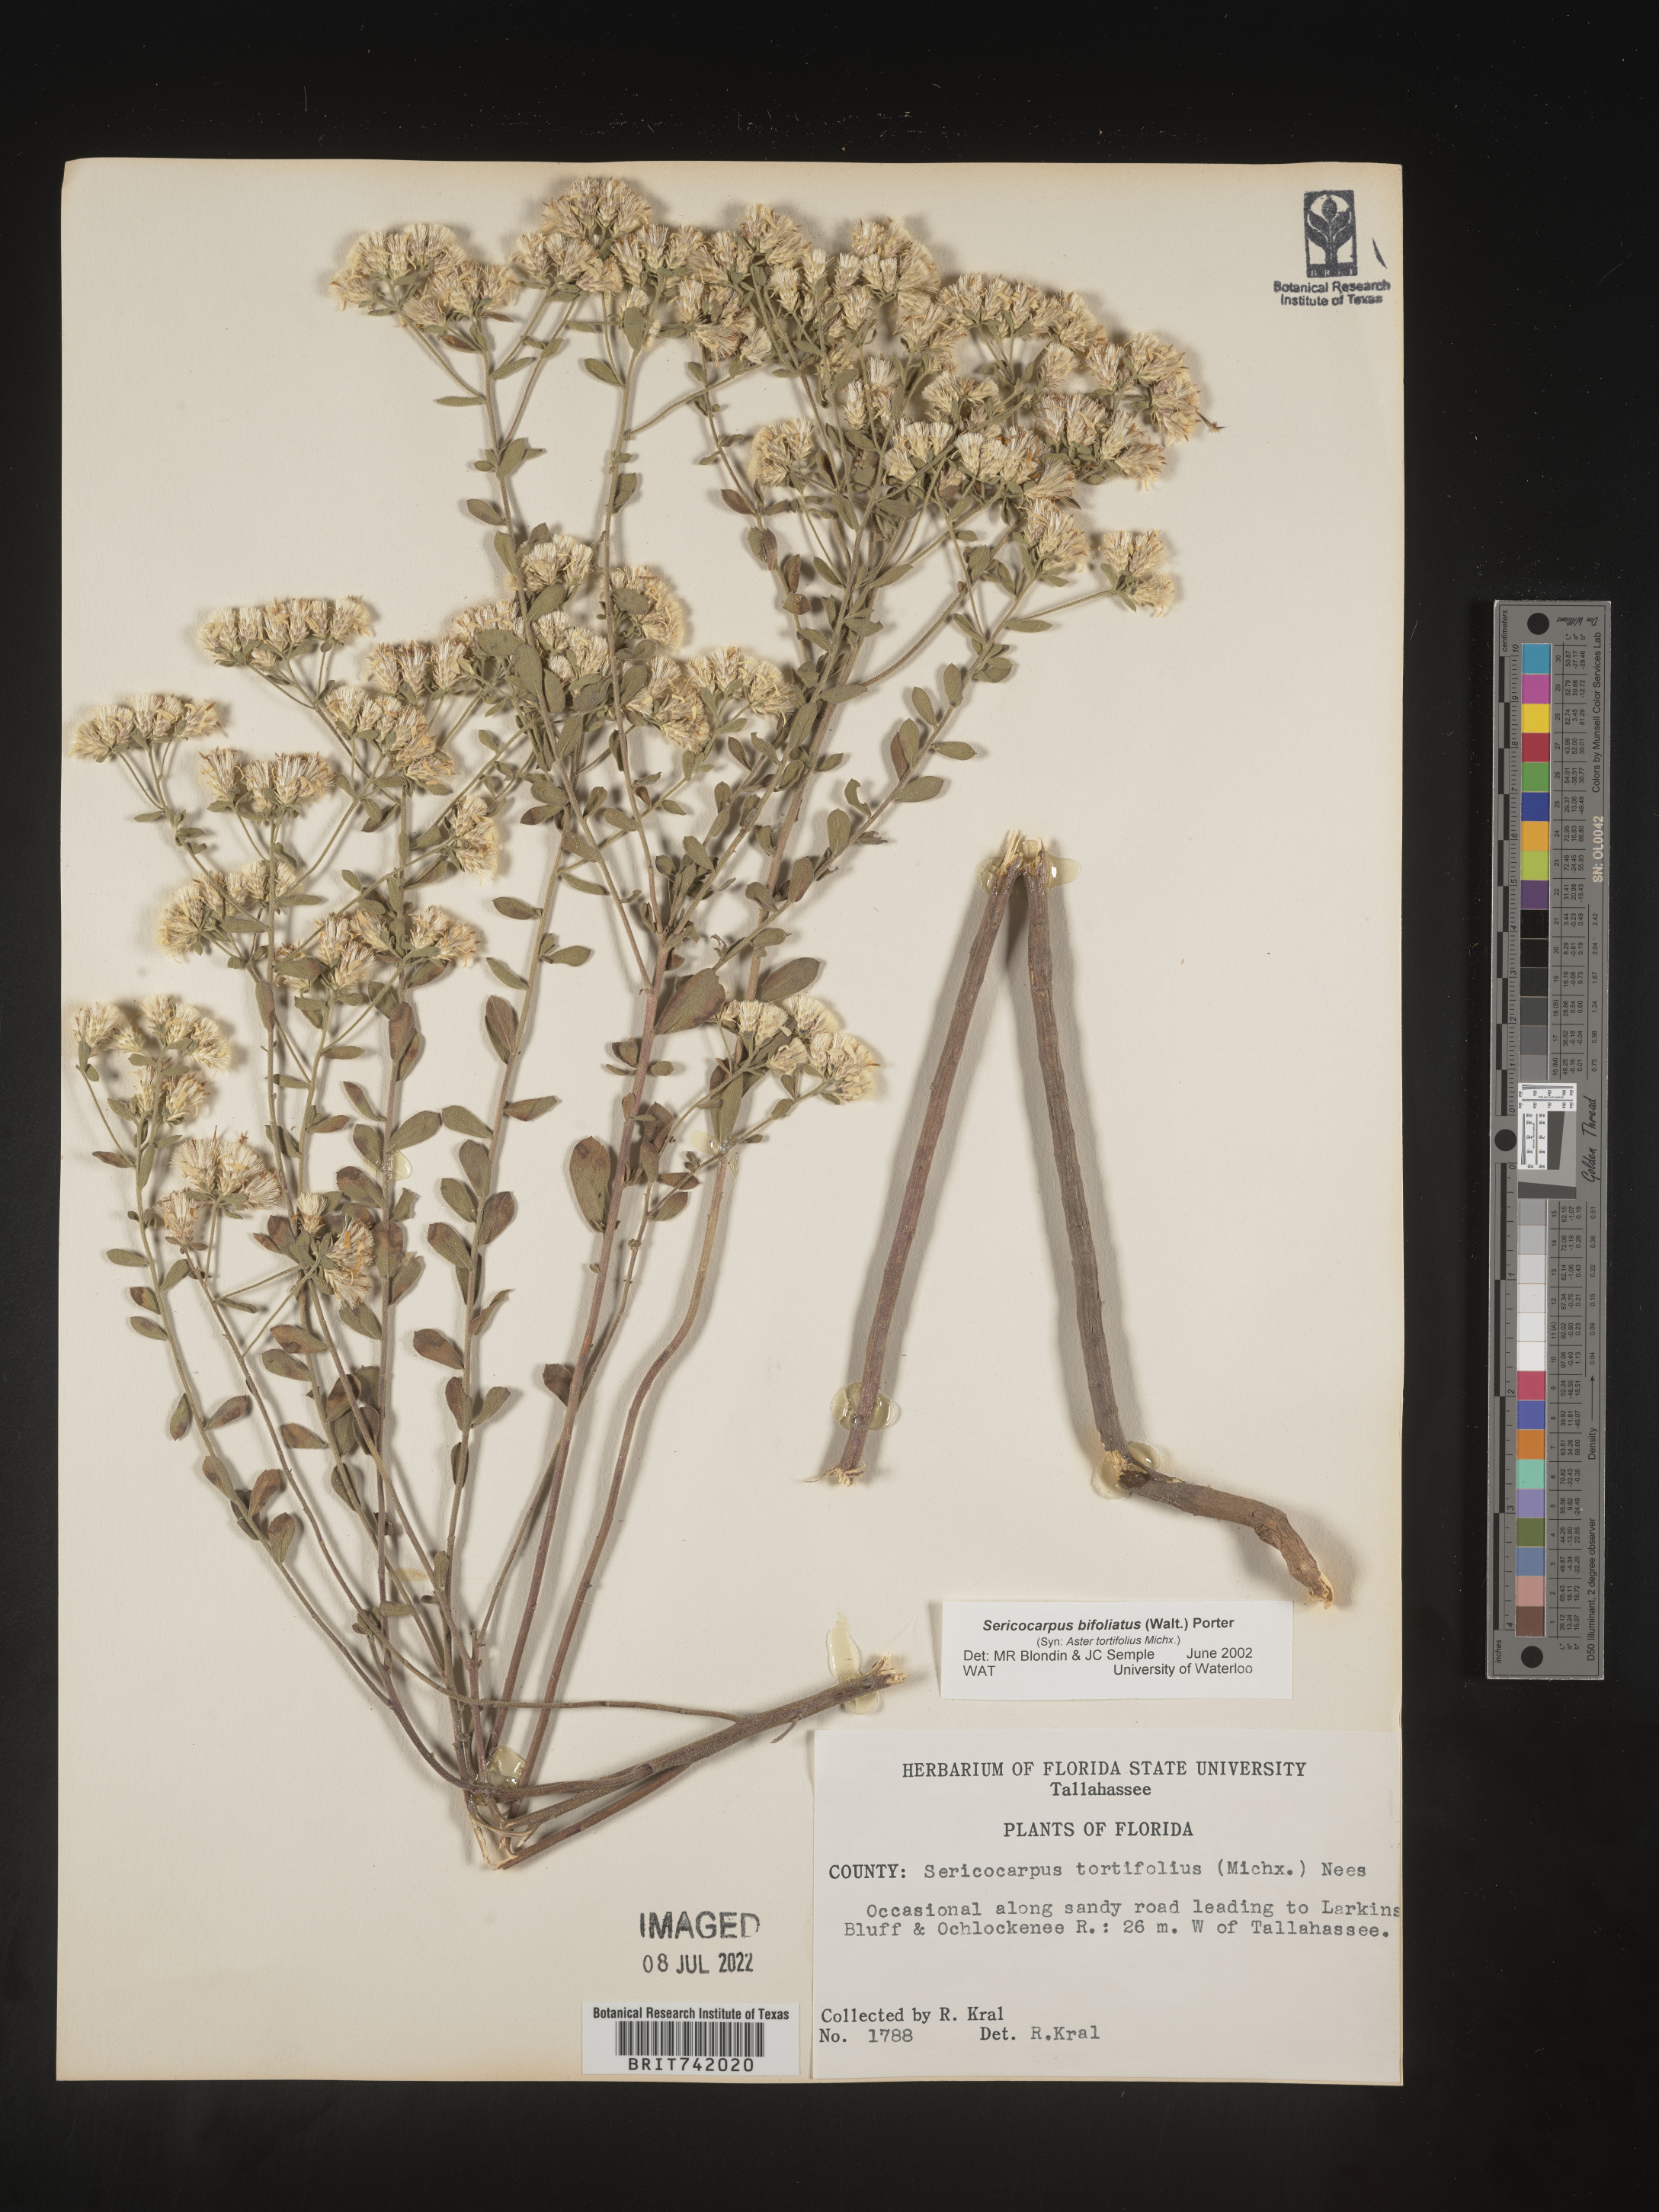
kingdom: Plantae
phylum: Tracheophyta
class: Magnoliopsida
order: Asterales
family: Asteraceae
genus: Sericocarpus
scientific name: Sericocarpus tortifolius
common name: Dixie aster
